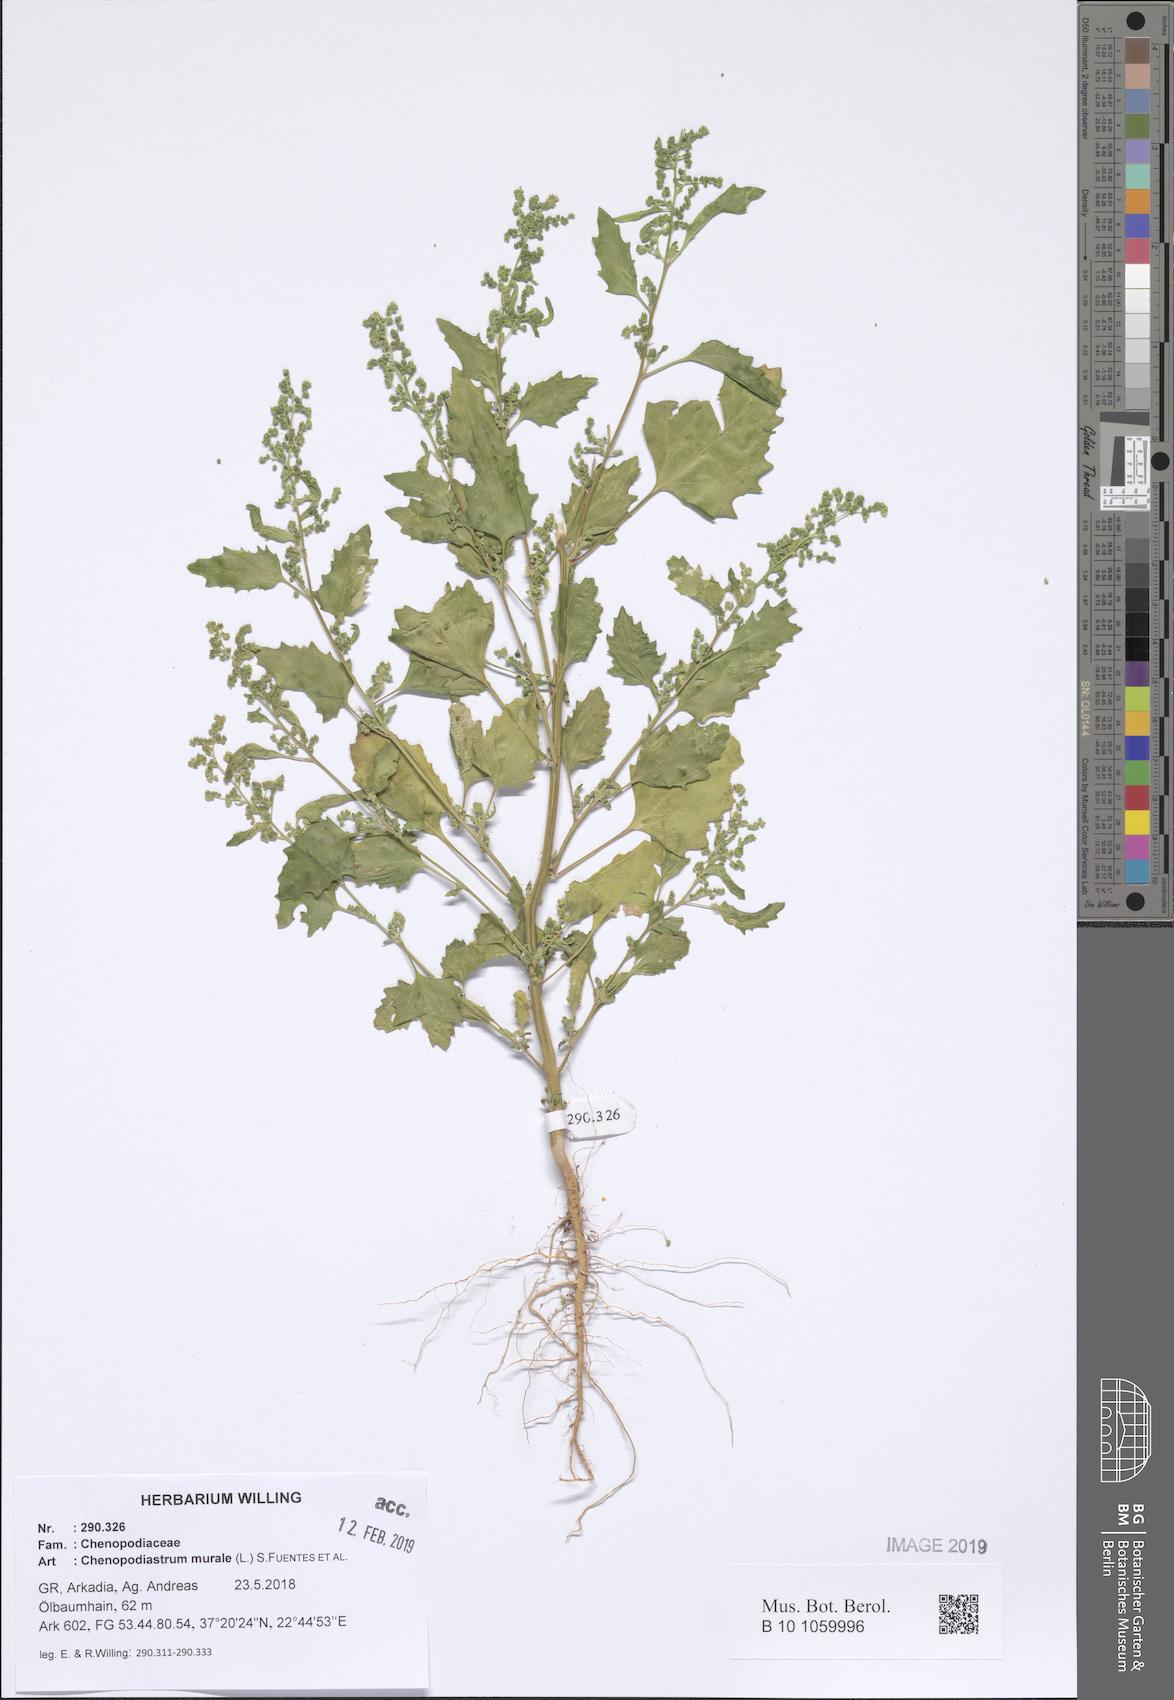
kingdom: Plantae
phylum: Tracheophyta
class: Magnoliopsida
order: Caryophyllales
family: Amaranthaceae
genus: Chenopodiastrum
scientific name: Chenopodiastrum murale
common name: Sowbane
